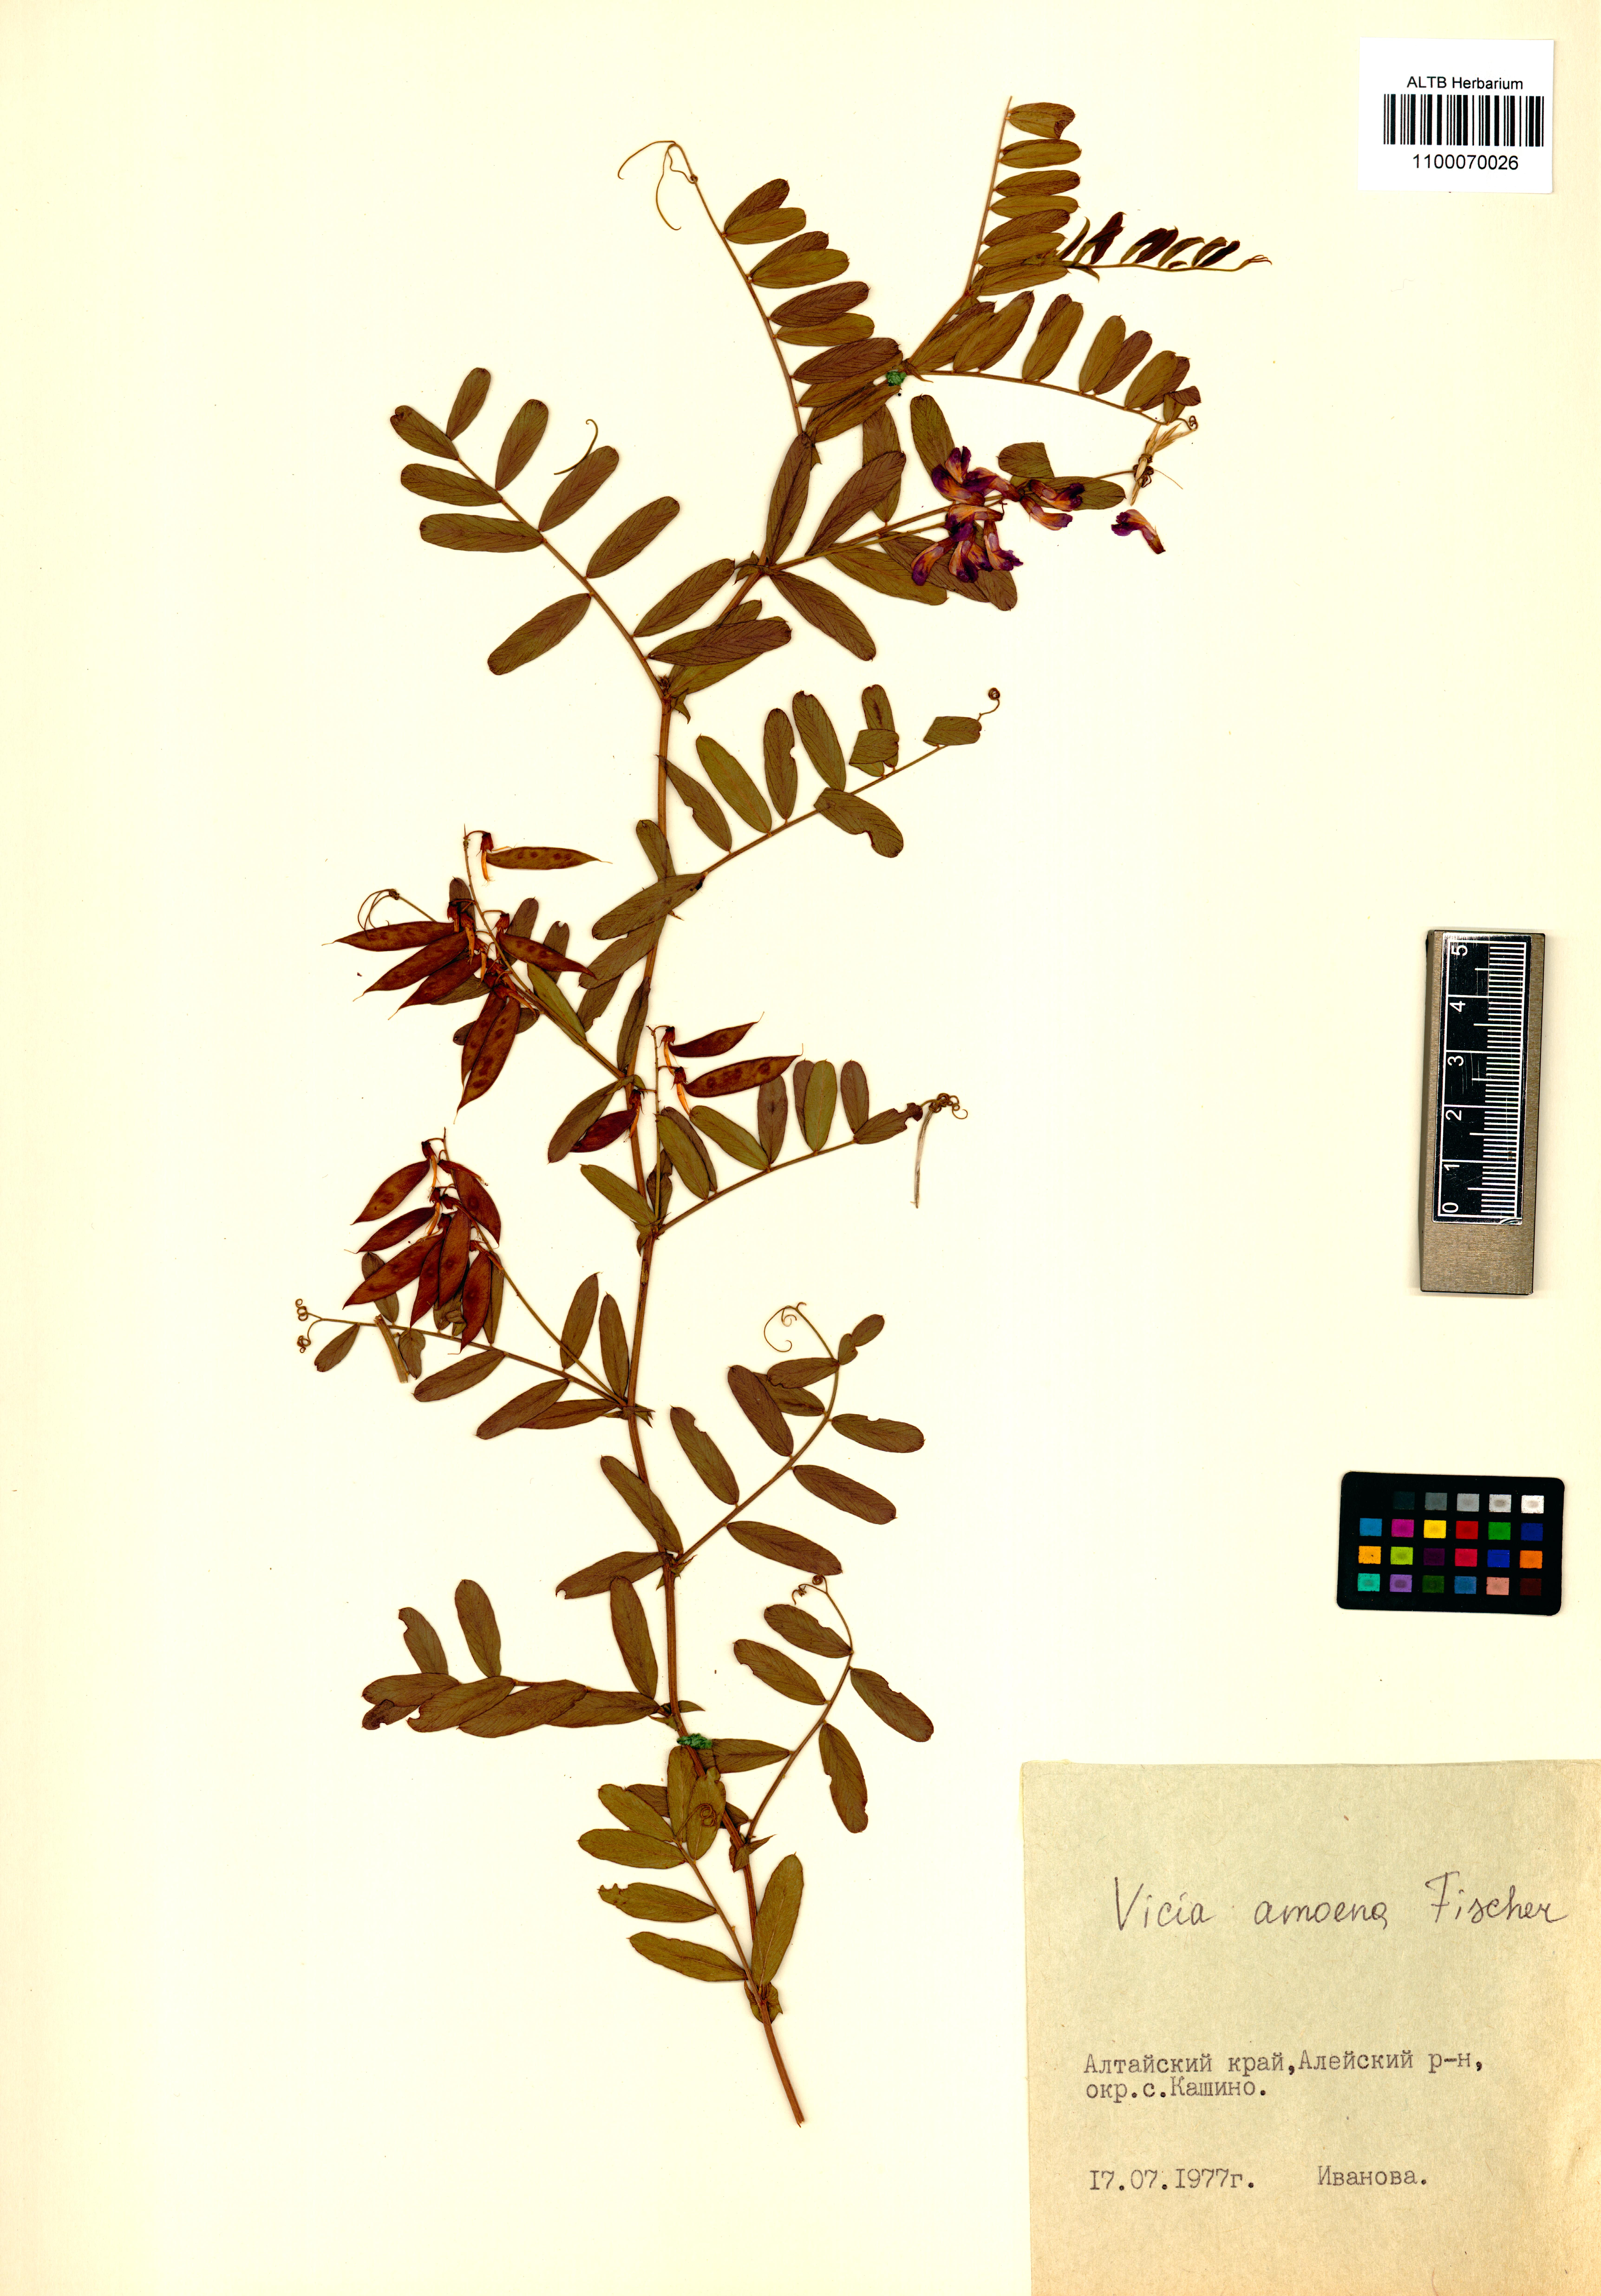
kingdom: Plantae
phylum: Tracheophyta
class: Magnoliopsida
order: Fabales
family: Fabaceae
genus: Vicia
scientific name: Vicia amoena
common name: Cheder ebs
